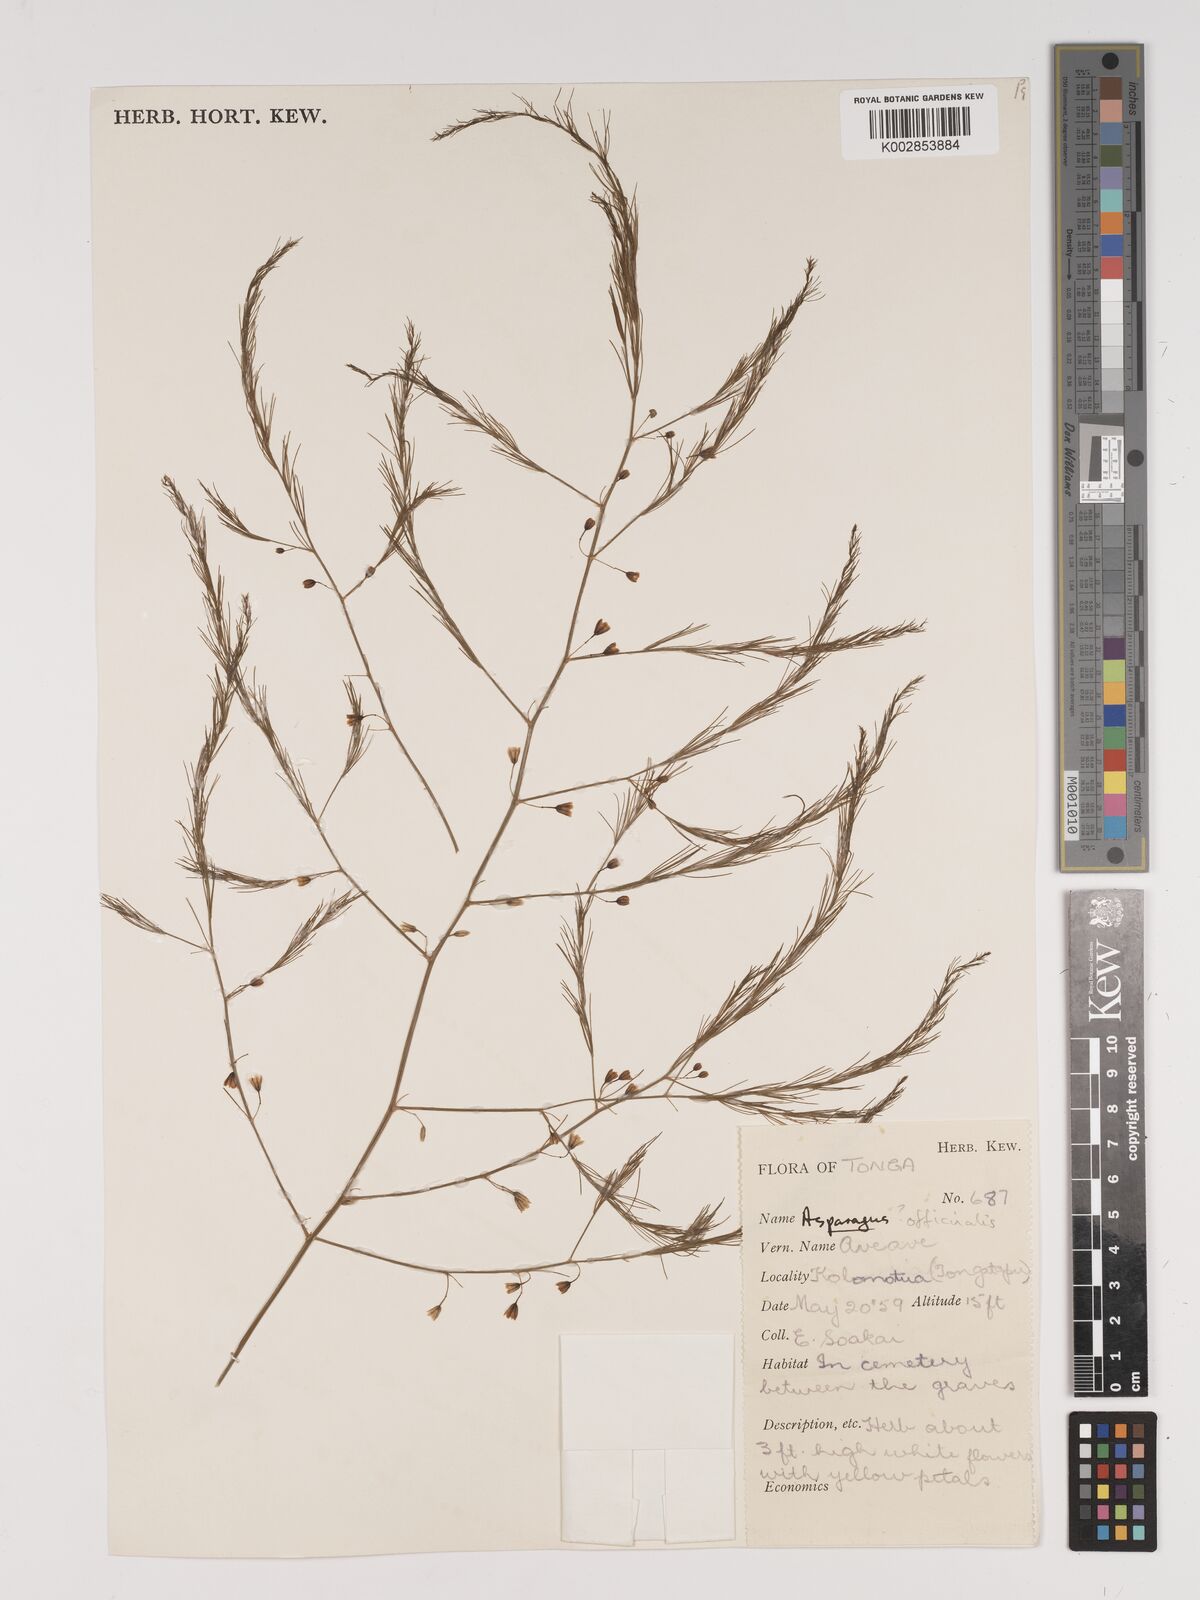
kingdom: Plantae
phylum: Tracheophyta
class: Liliopsida
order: Asparagales
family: Asparagaceae
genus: Asparagus
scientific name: Asparagus officinalis
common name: Garden asparagus
